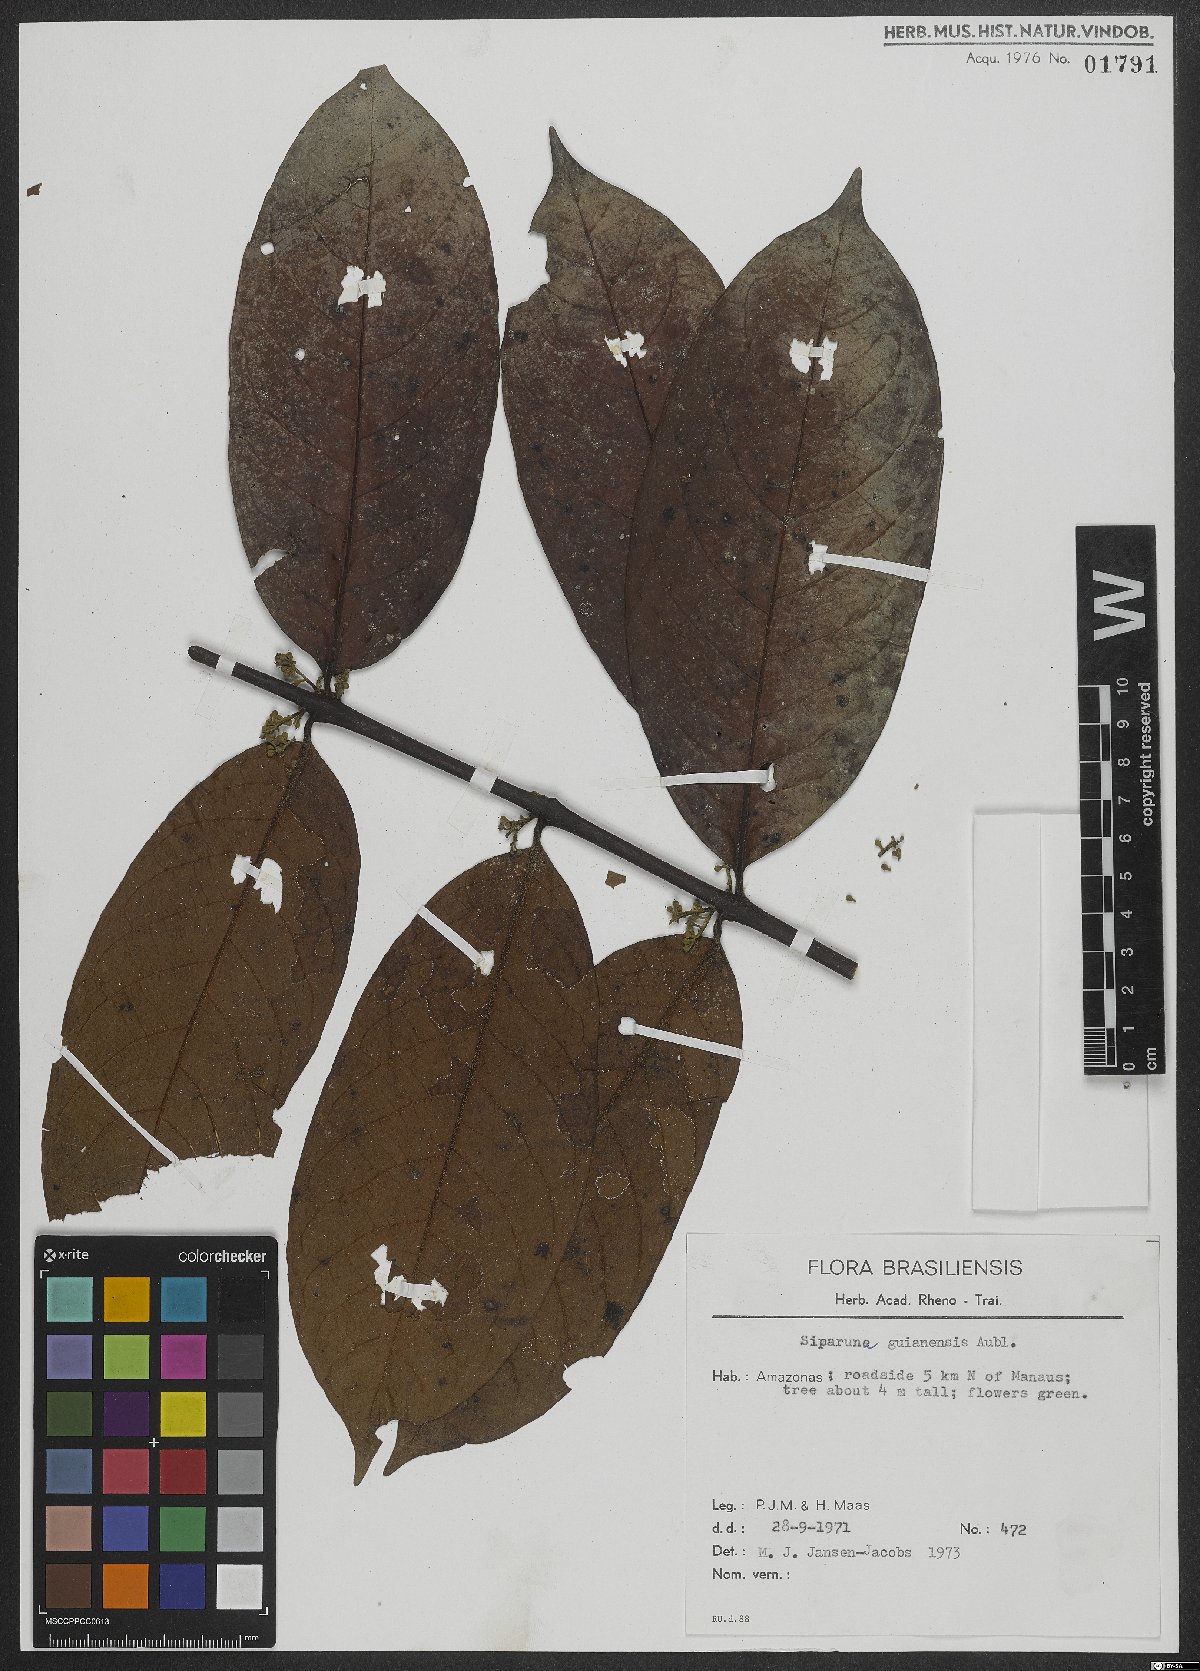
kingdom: Plantae
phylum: Tracheophyta
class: Magnoliopsida
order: Laurales
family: Siparunaceae
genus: Siparuna
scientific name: Siparuna guianensis
